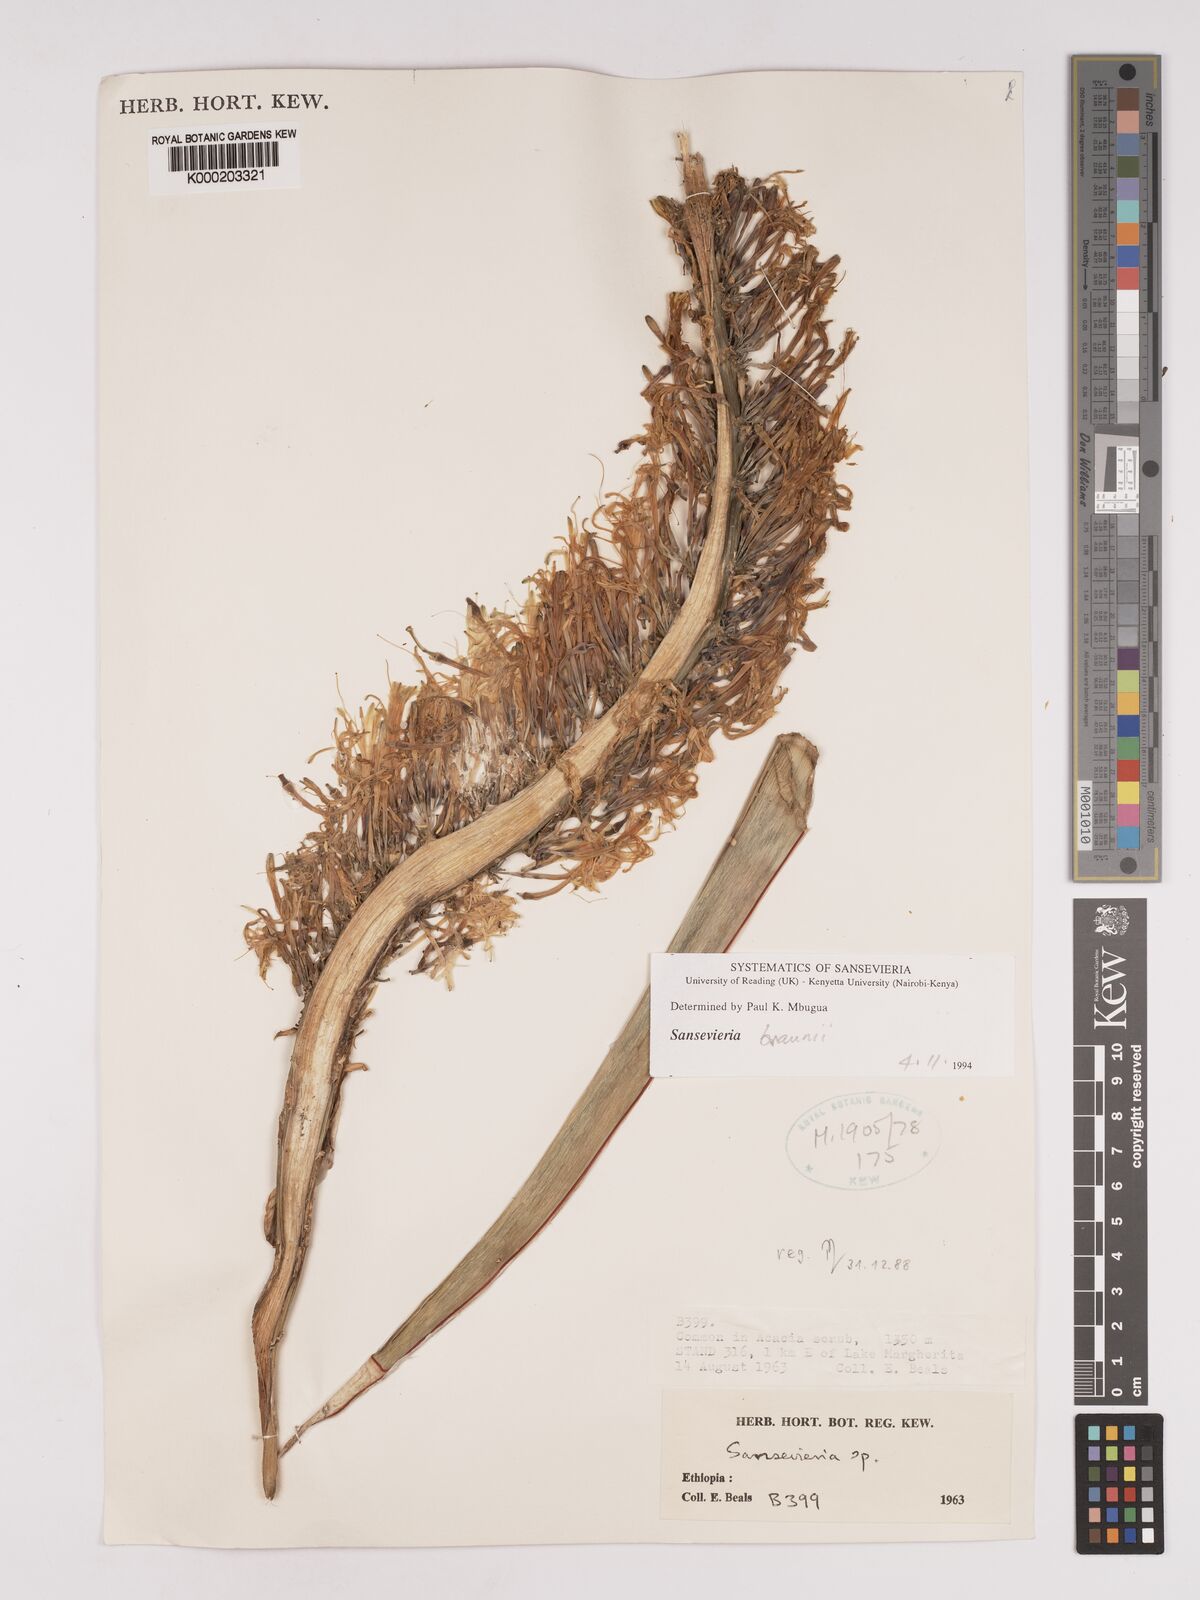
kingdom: Plantae
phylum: Tracheophyta
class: Liliopsida
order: Asparagales
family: Asparagaceae
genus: Dracaena
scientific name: Dracaena
